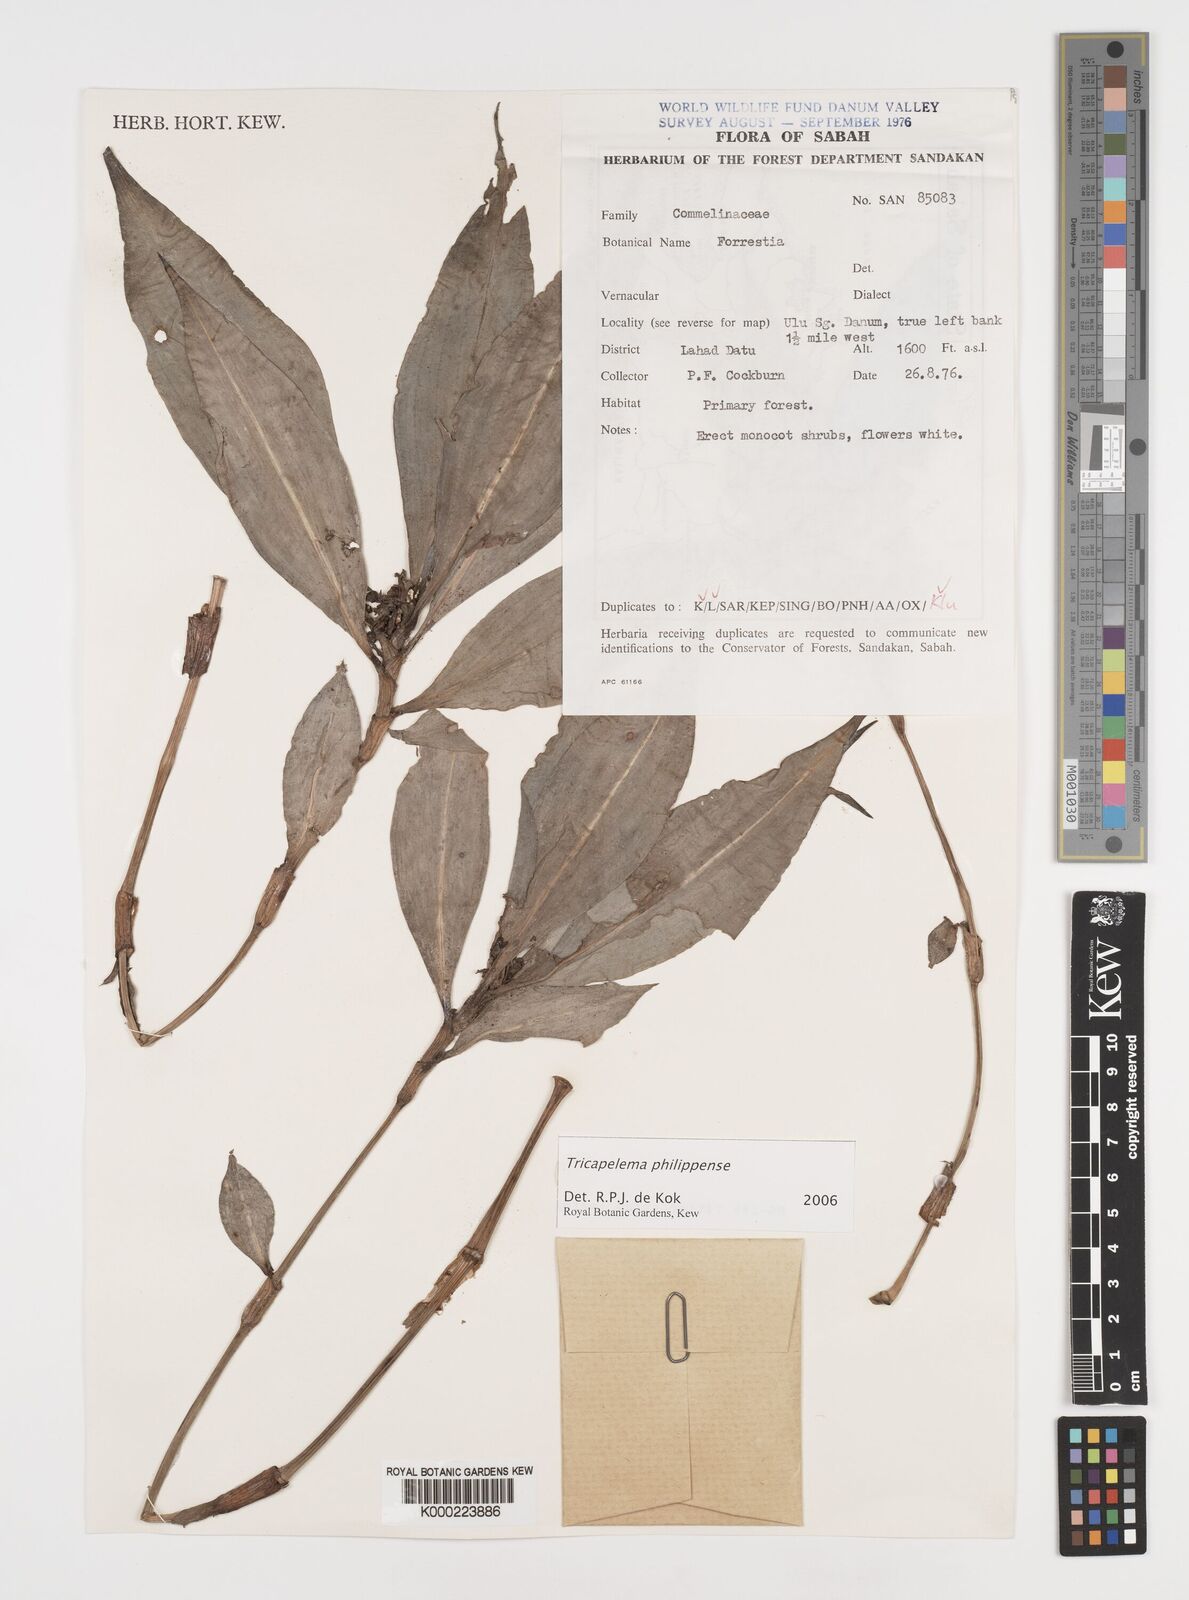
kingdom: Plantae
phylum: Tracheophyta
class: Liliopsida
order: Commelinales
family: Commelinaceae
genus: Tricarpelema
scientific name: Tricarpelema philippense
